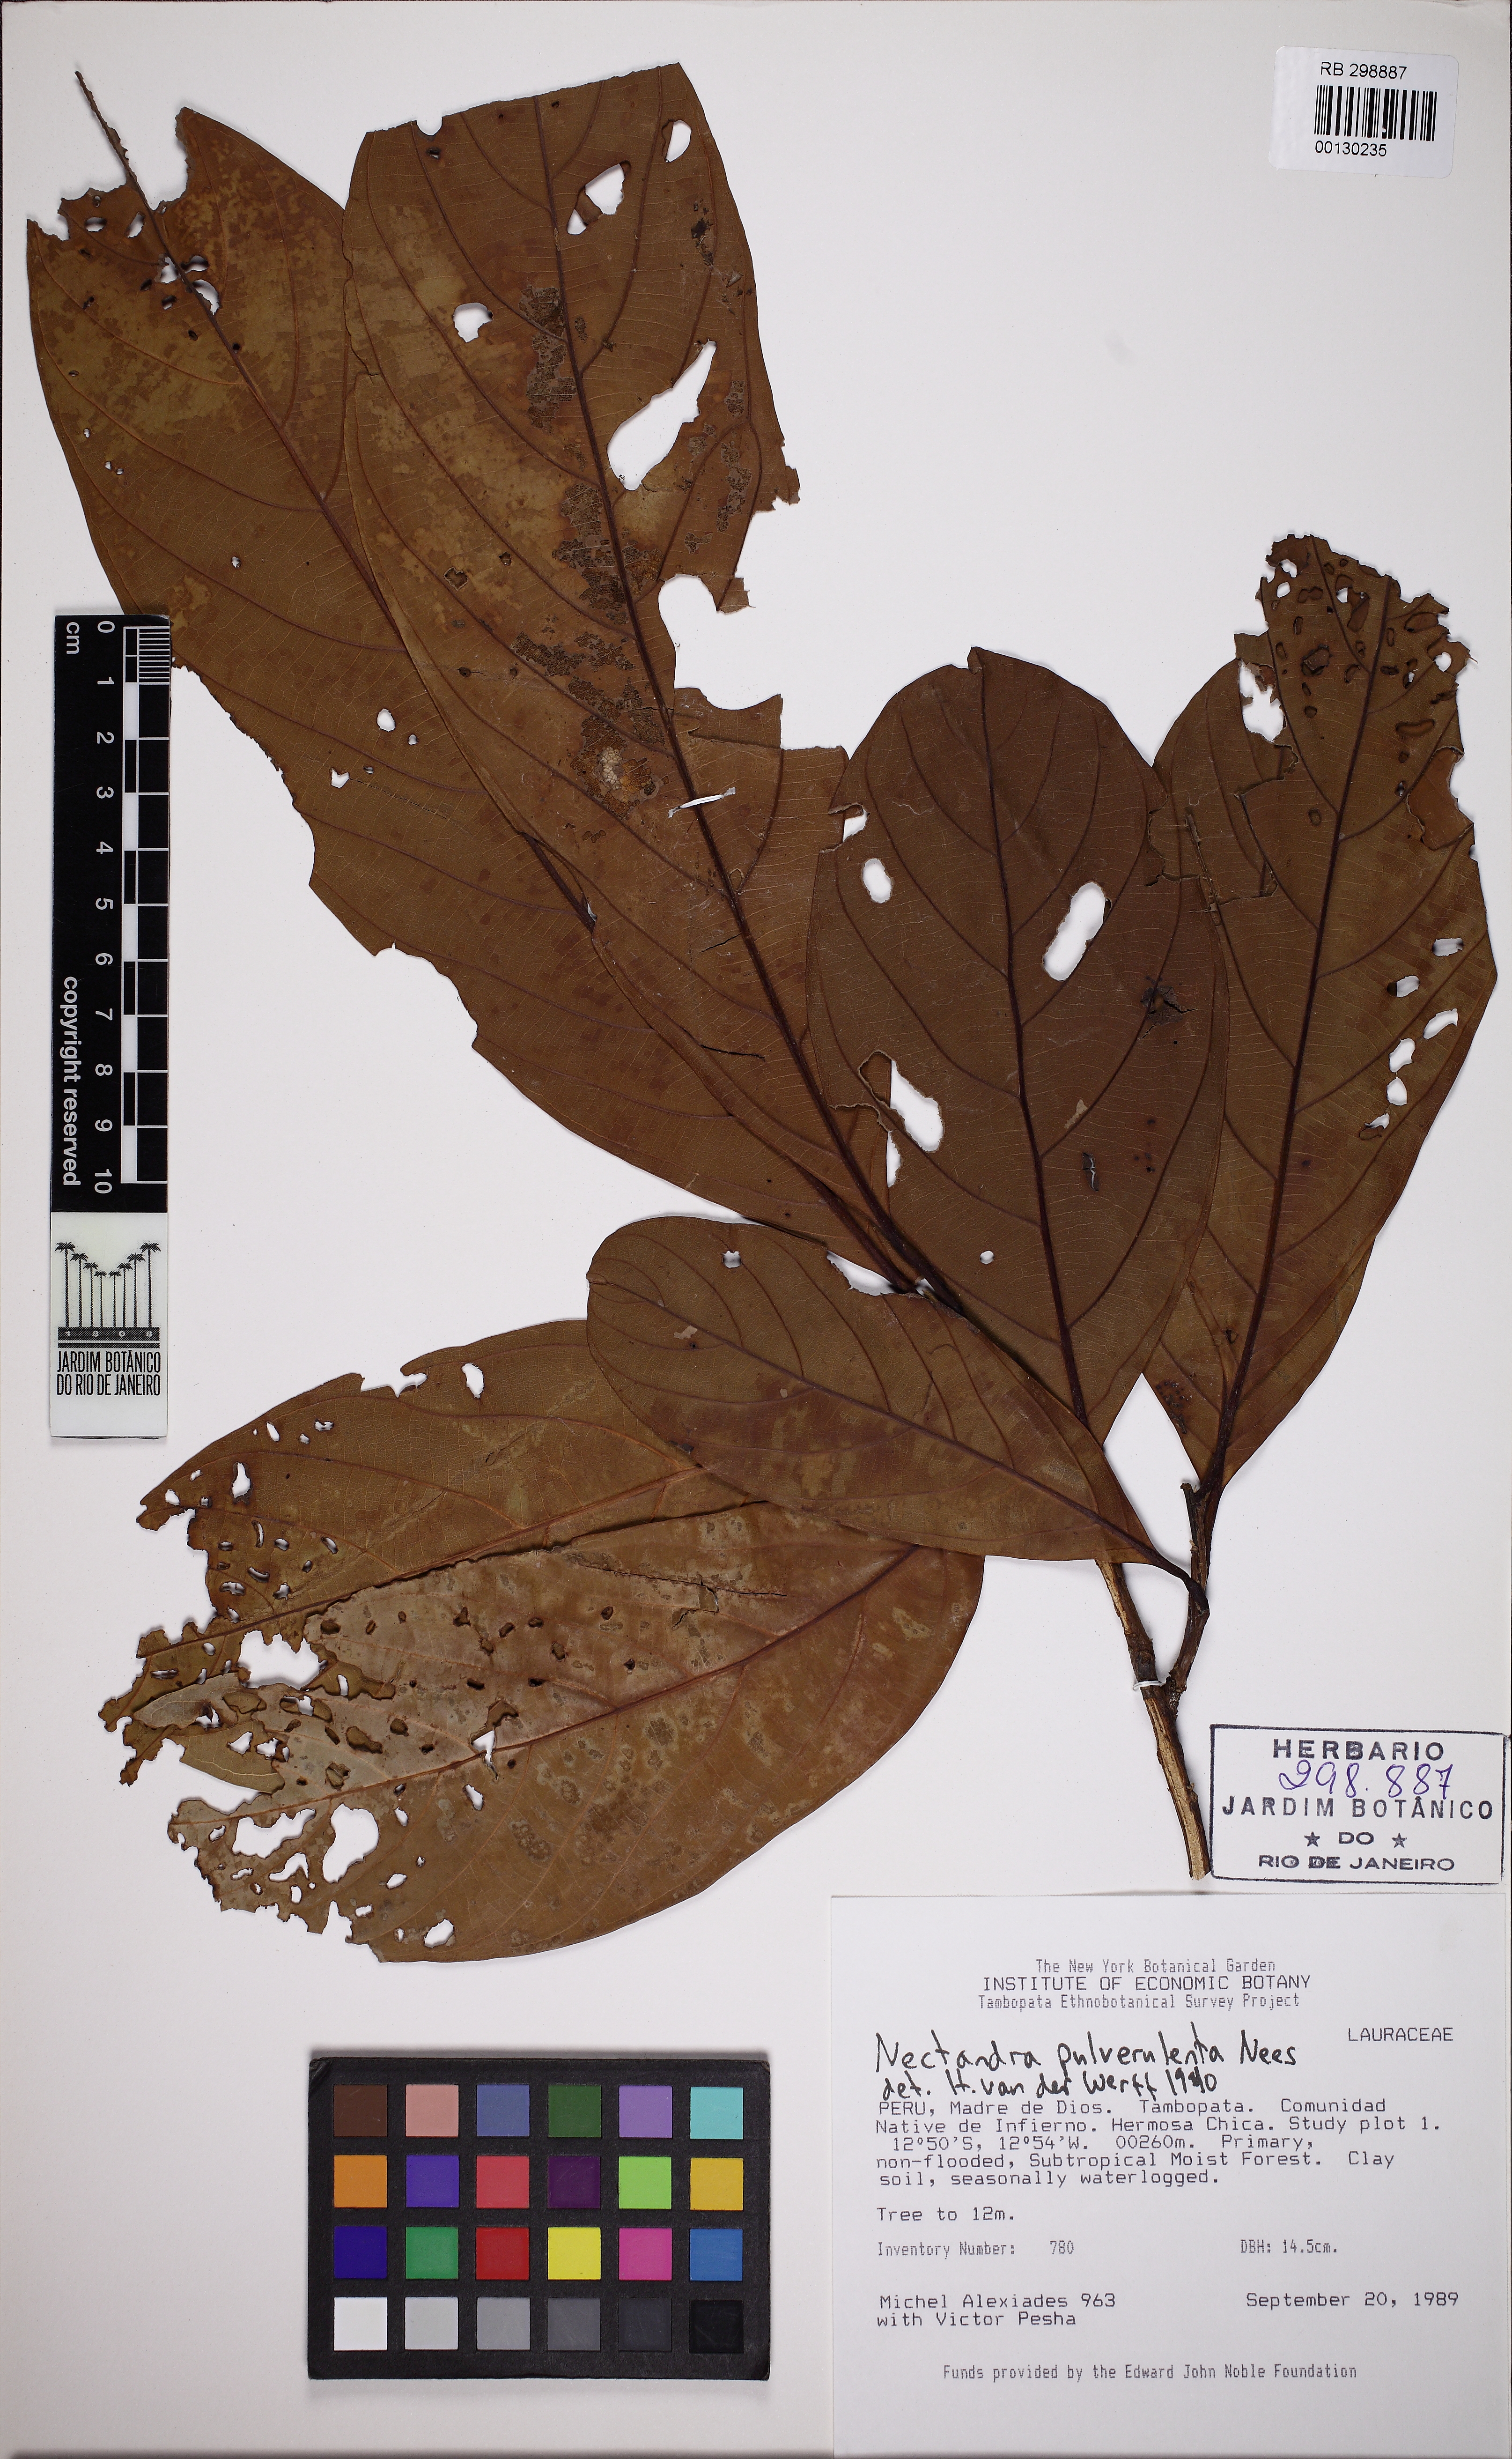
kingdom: Plantae
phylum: Tracheophyta
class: Magnoliopsida
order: Laurales
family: Lauraceae
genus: Nectandra
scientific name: Nectandra pulverulenta
